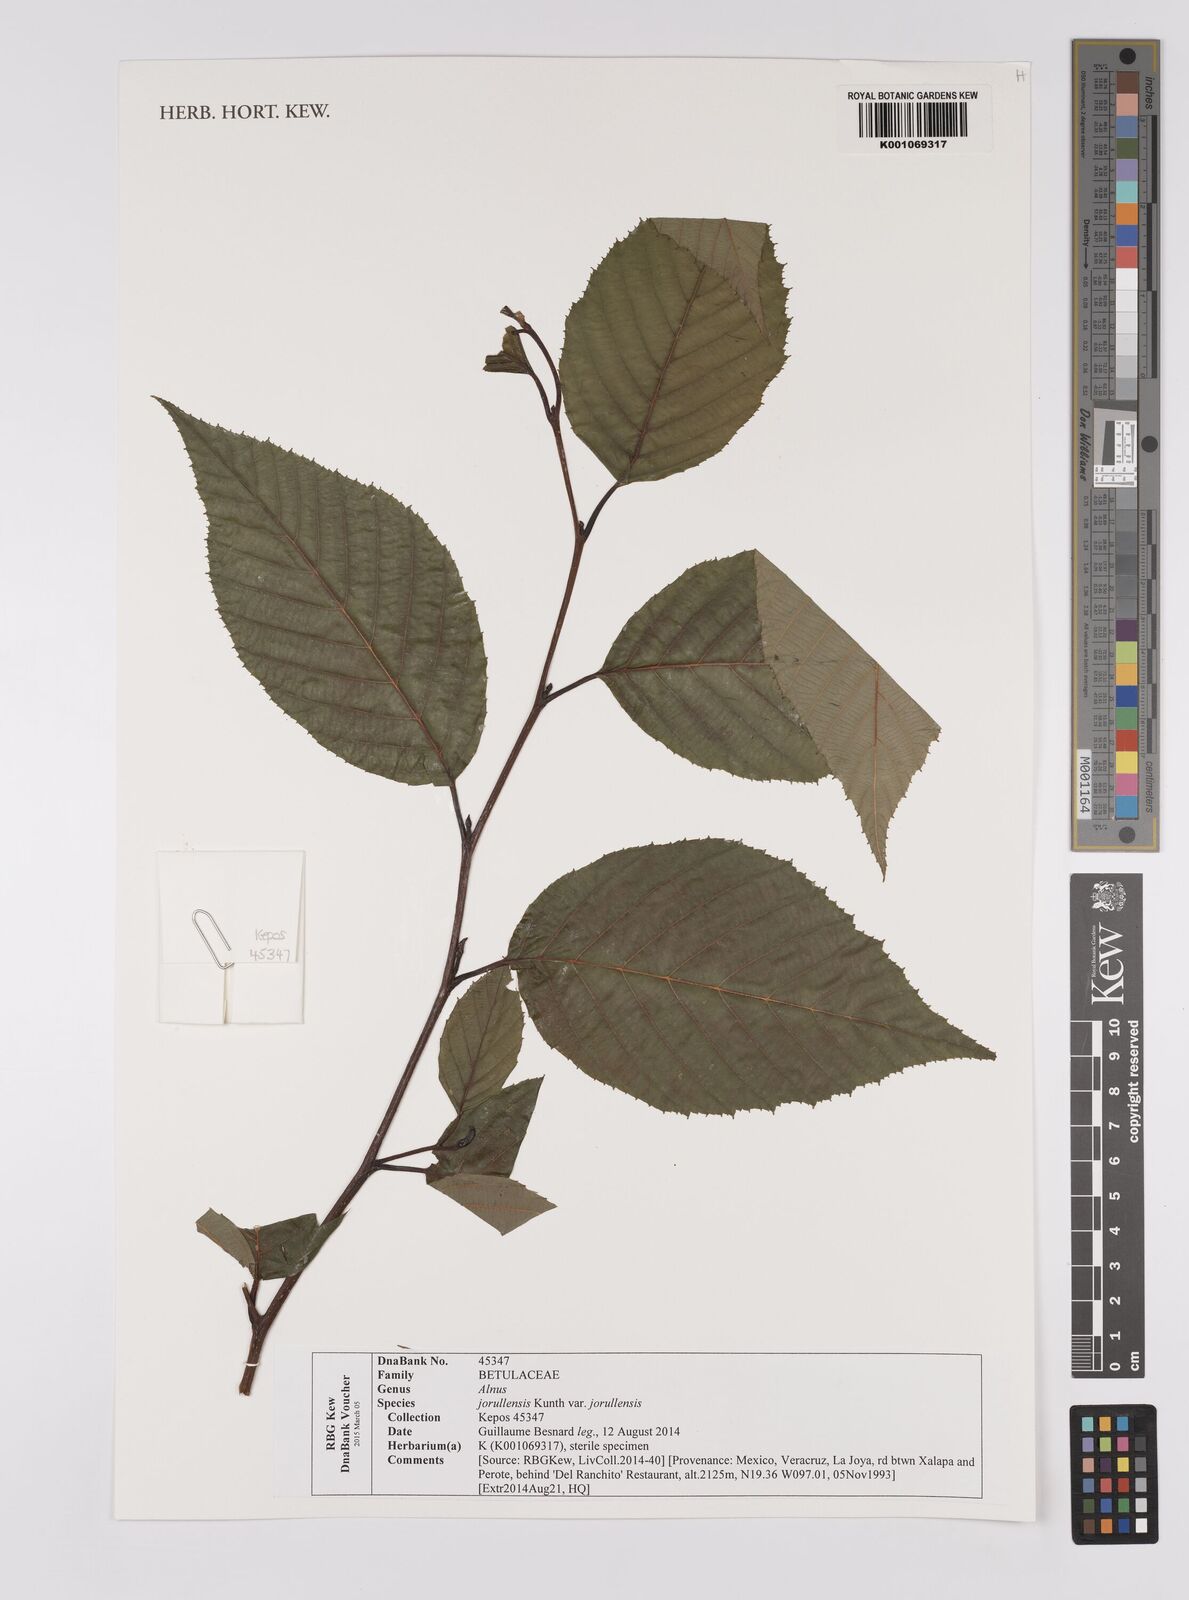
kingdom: Plantae
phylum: Tracheophyta
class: Magnoliopsida
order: Fagales
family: Betulaceae
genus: Alnus
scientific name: Alnus jorullensis
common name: Evergreen alder
